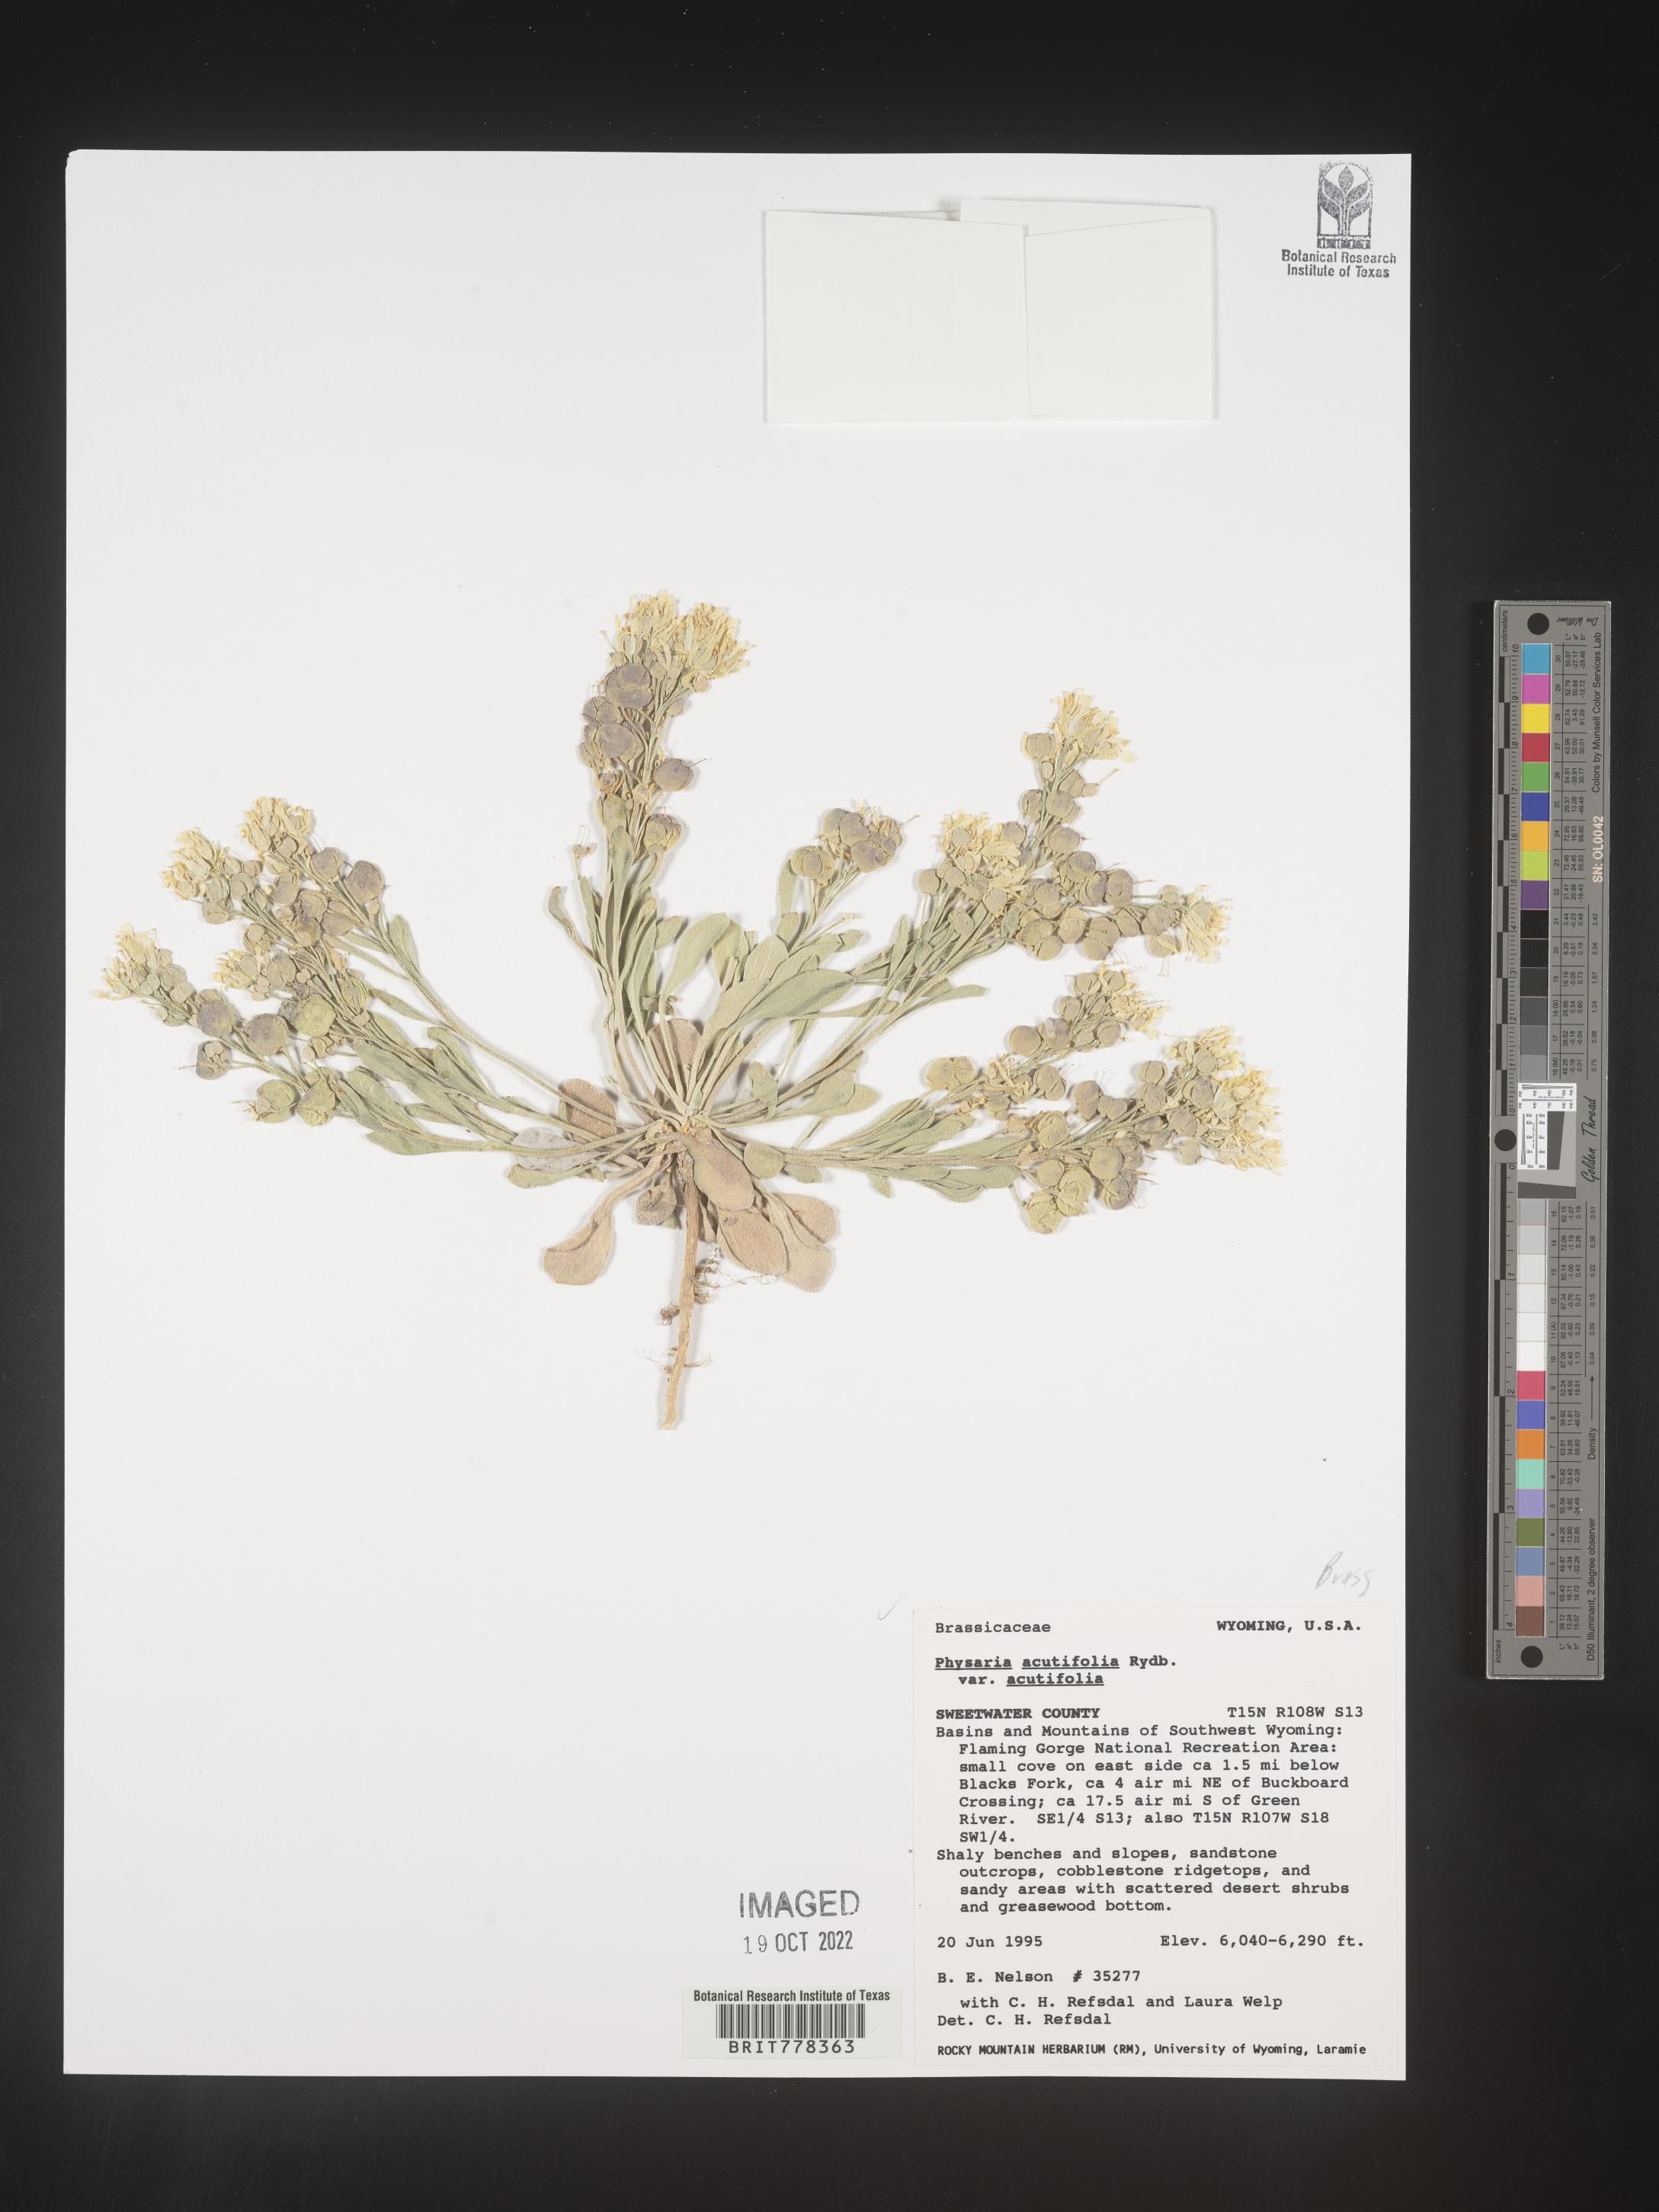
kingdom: Plantae
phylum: Tracheophyta
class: Magnoliopsida
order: Brassicales
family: Brassicaceae
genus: Physaria
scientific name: Physaria
